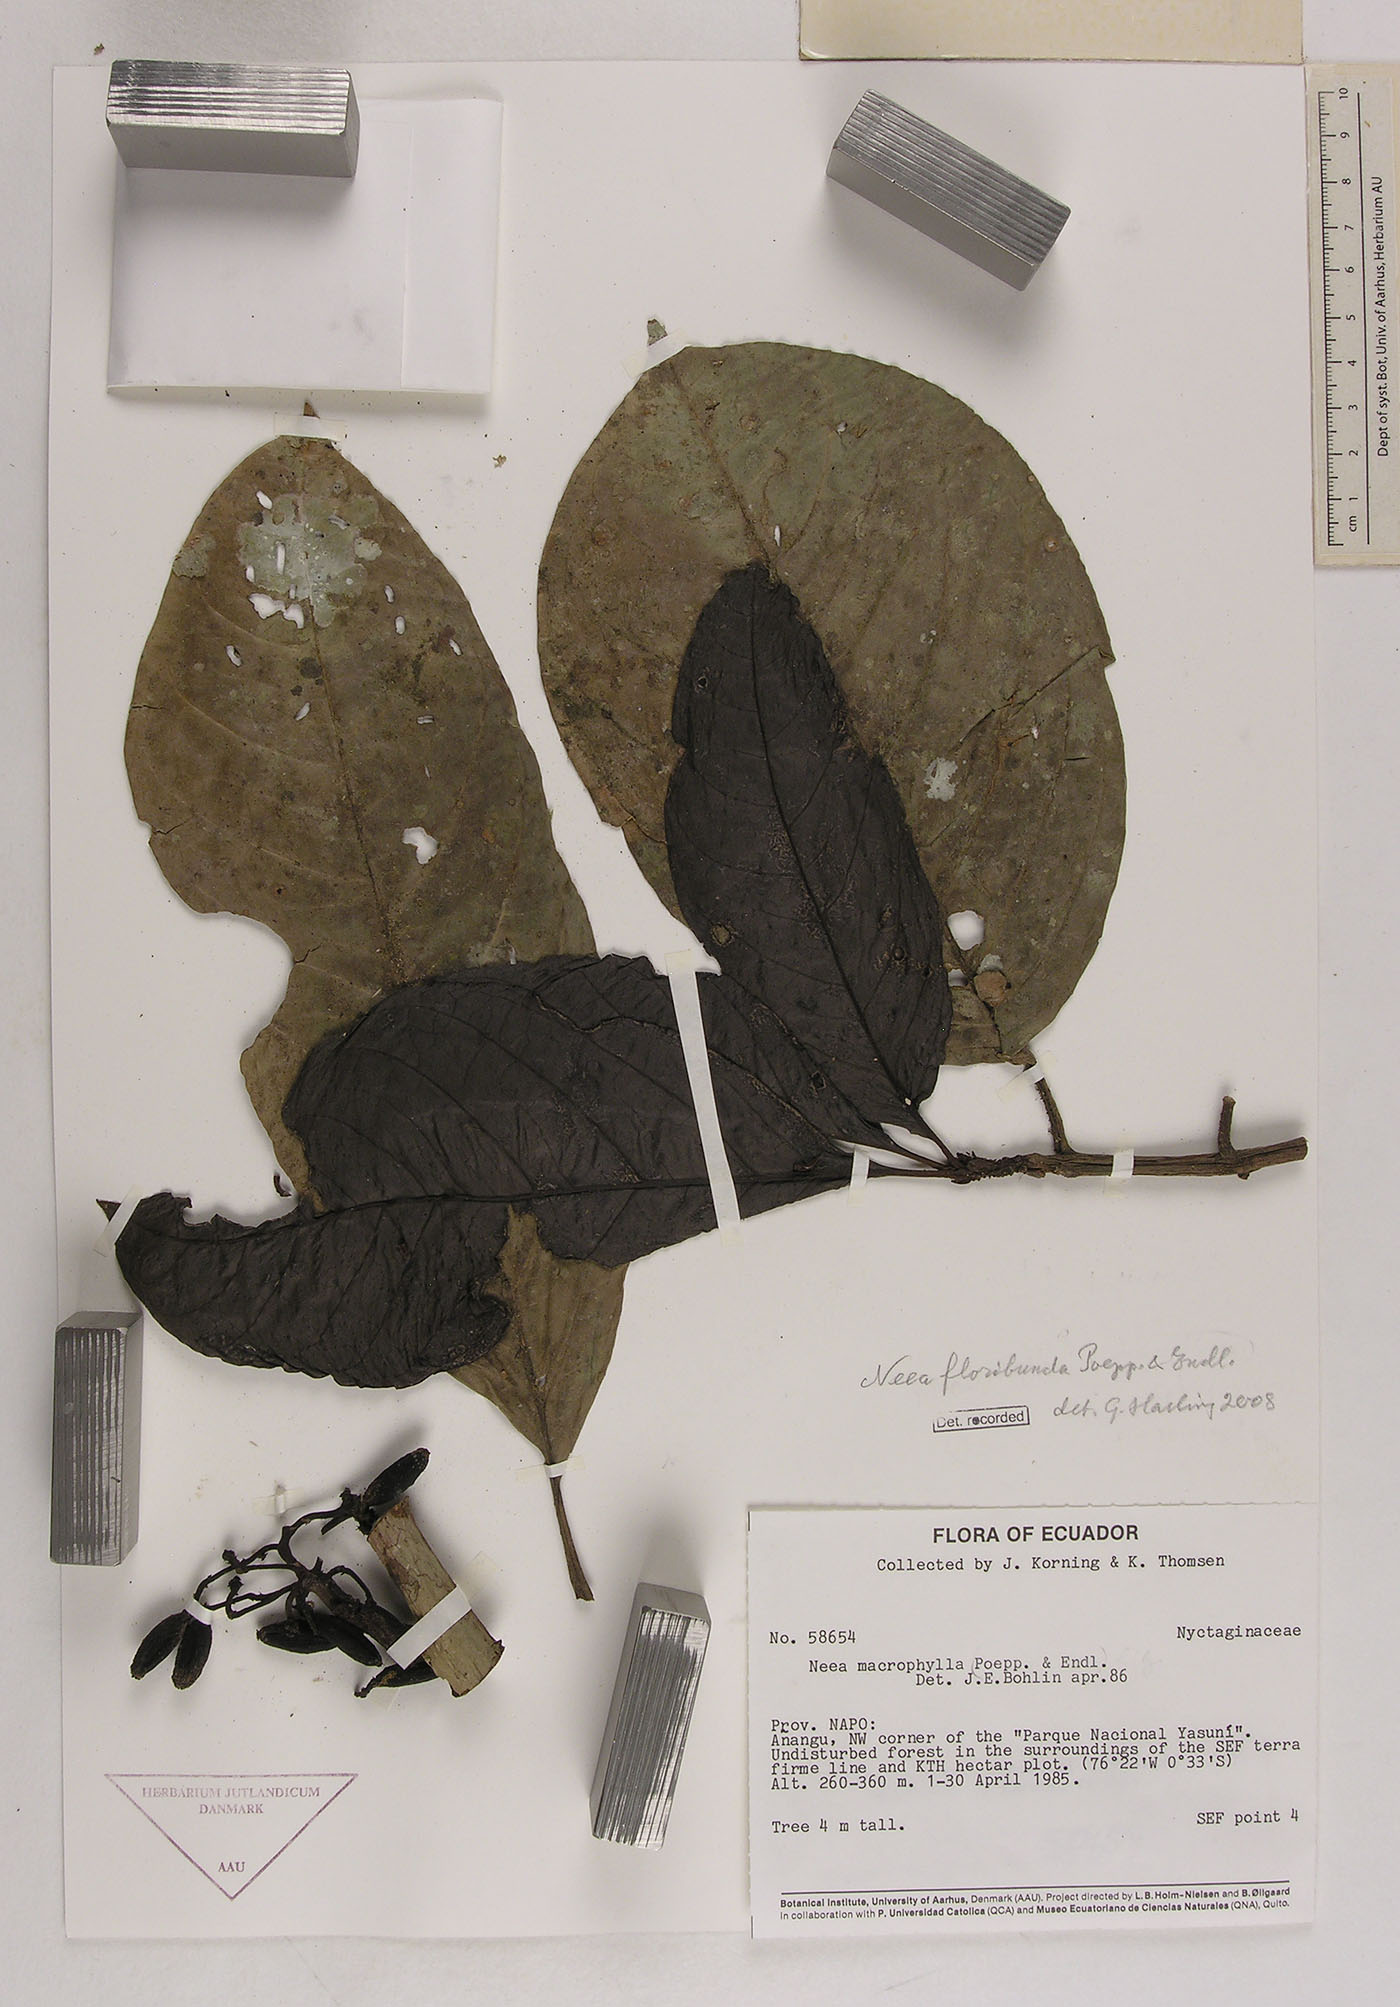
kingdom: Plantae
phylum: Tracheophyta
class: Magnoliopsida
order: Caryophyllales
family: Nyctaginaceae
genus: Neea
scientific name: Neea floribunda
